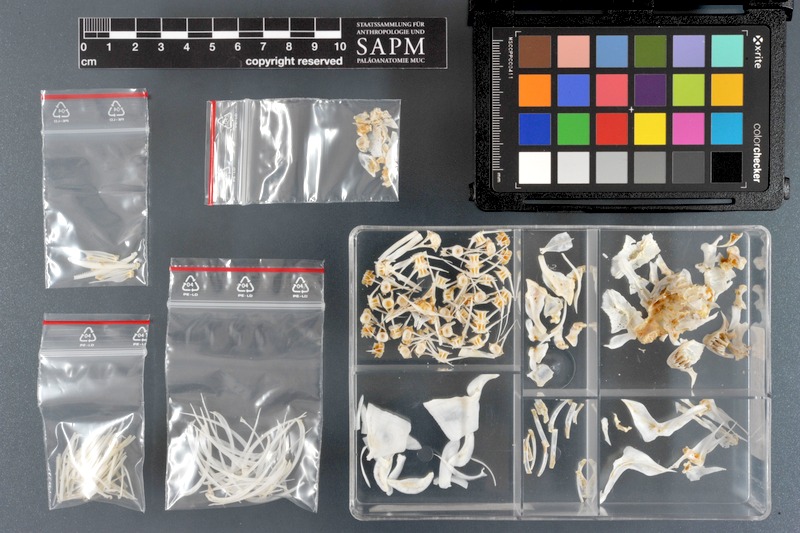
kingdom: Animalia
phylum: Chordata
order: Cypriniformes
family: Cyprinidae
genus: Capoeta
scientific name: Capoeta capoeta
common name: Caucasian scraper
